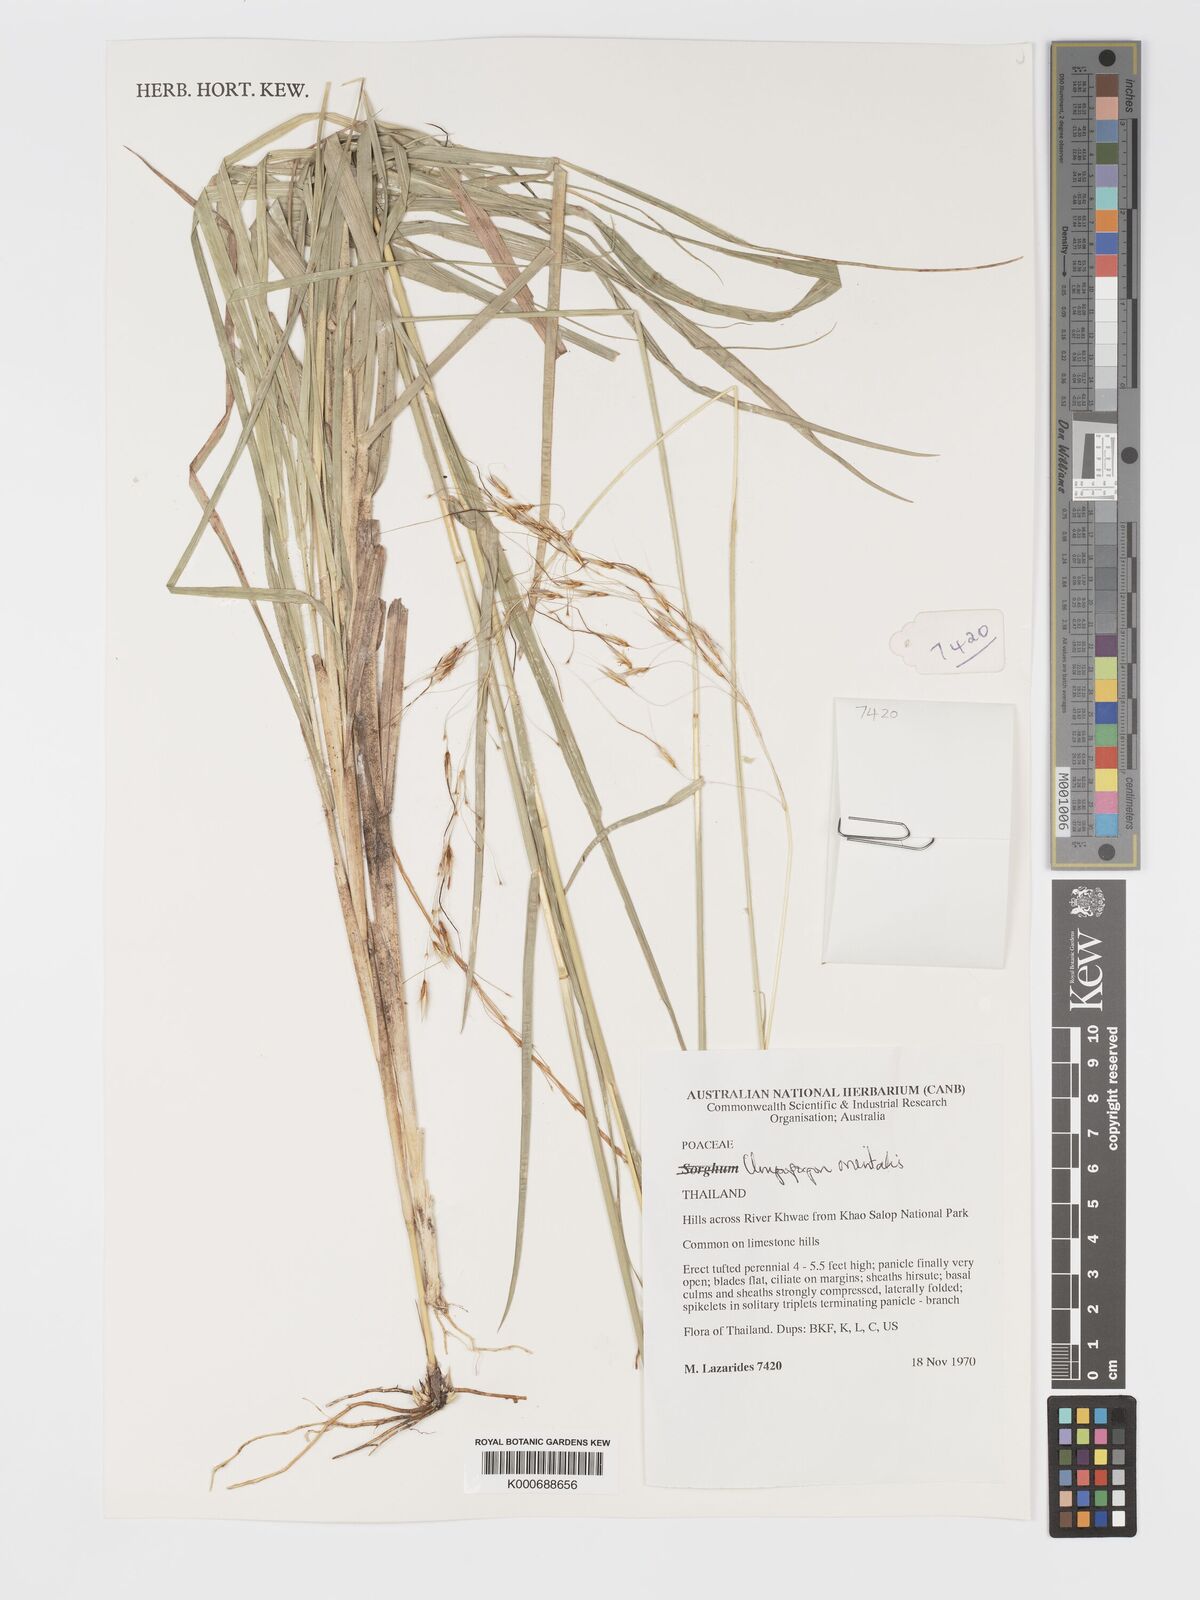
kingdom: Plantae
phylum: Tracheophyta
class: Liliopsida
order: Poales
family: Poaceae
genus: Chrysopogon
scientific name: Chrysopogon orientalis
